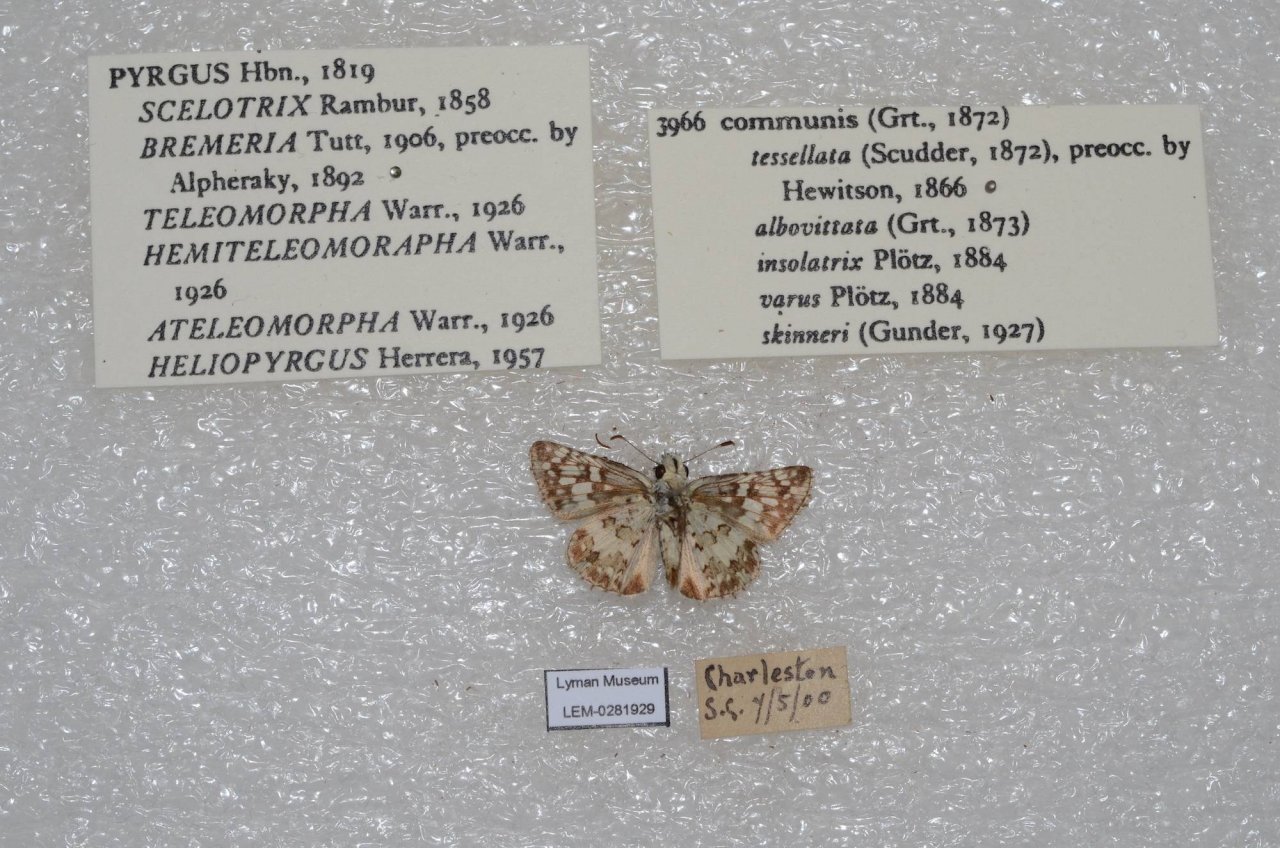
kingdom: Animalia
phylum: Arthropoda
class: Insecta
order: Lepidoptera
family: Hesperiidae
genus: Pyrgus
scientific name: Pyrgus communis
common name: Common Checkered-Skipper
